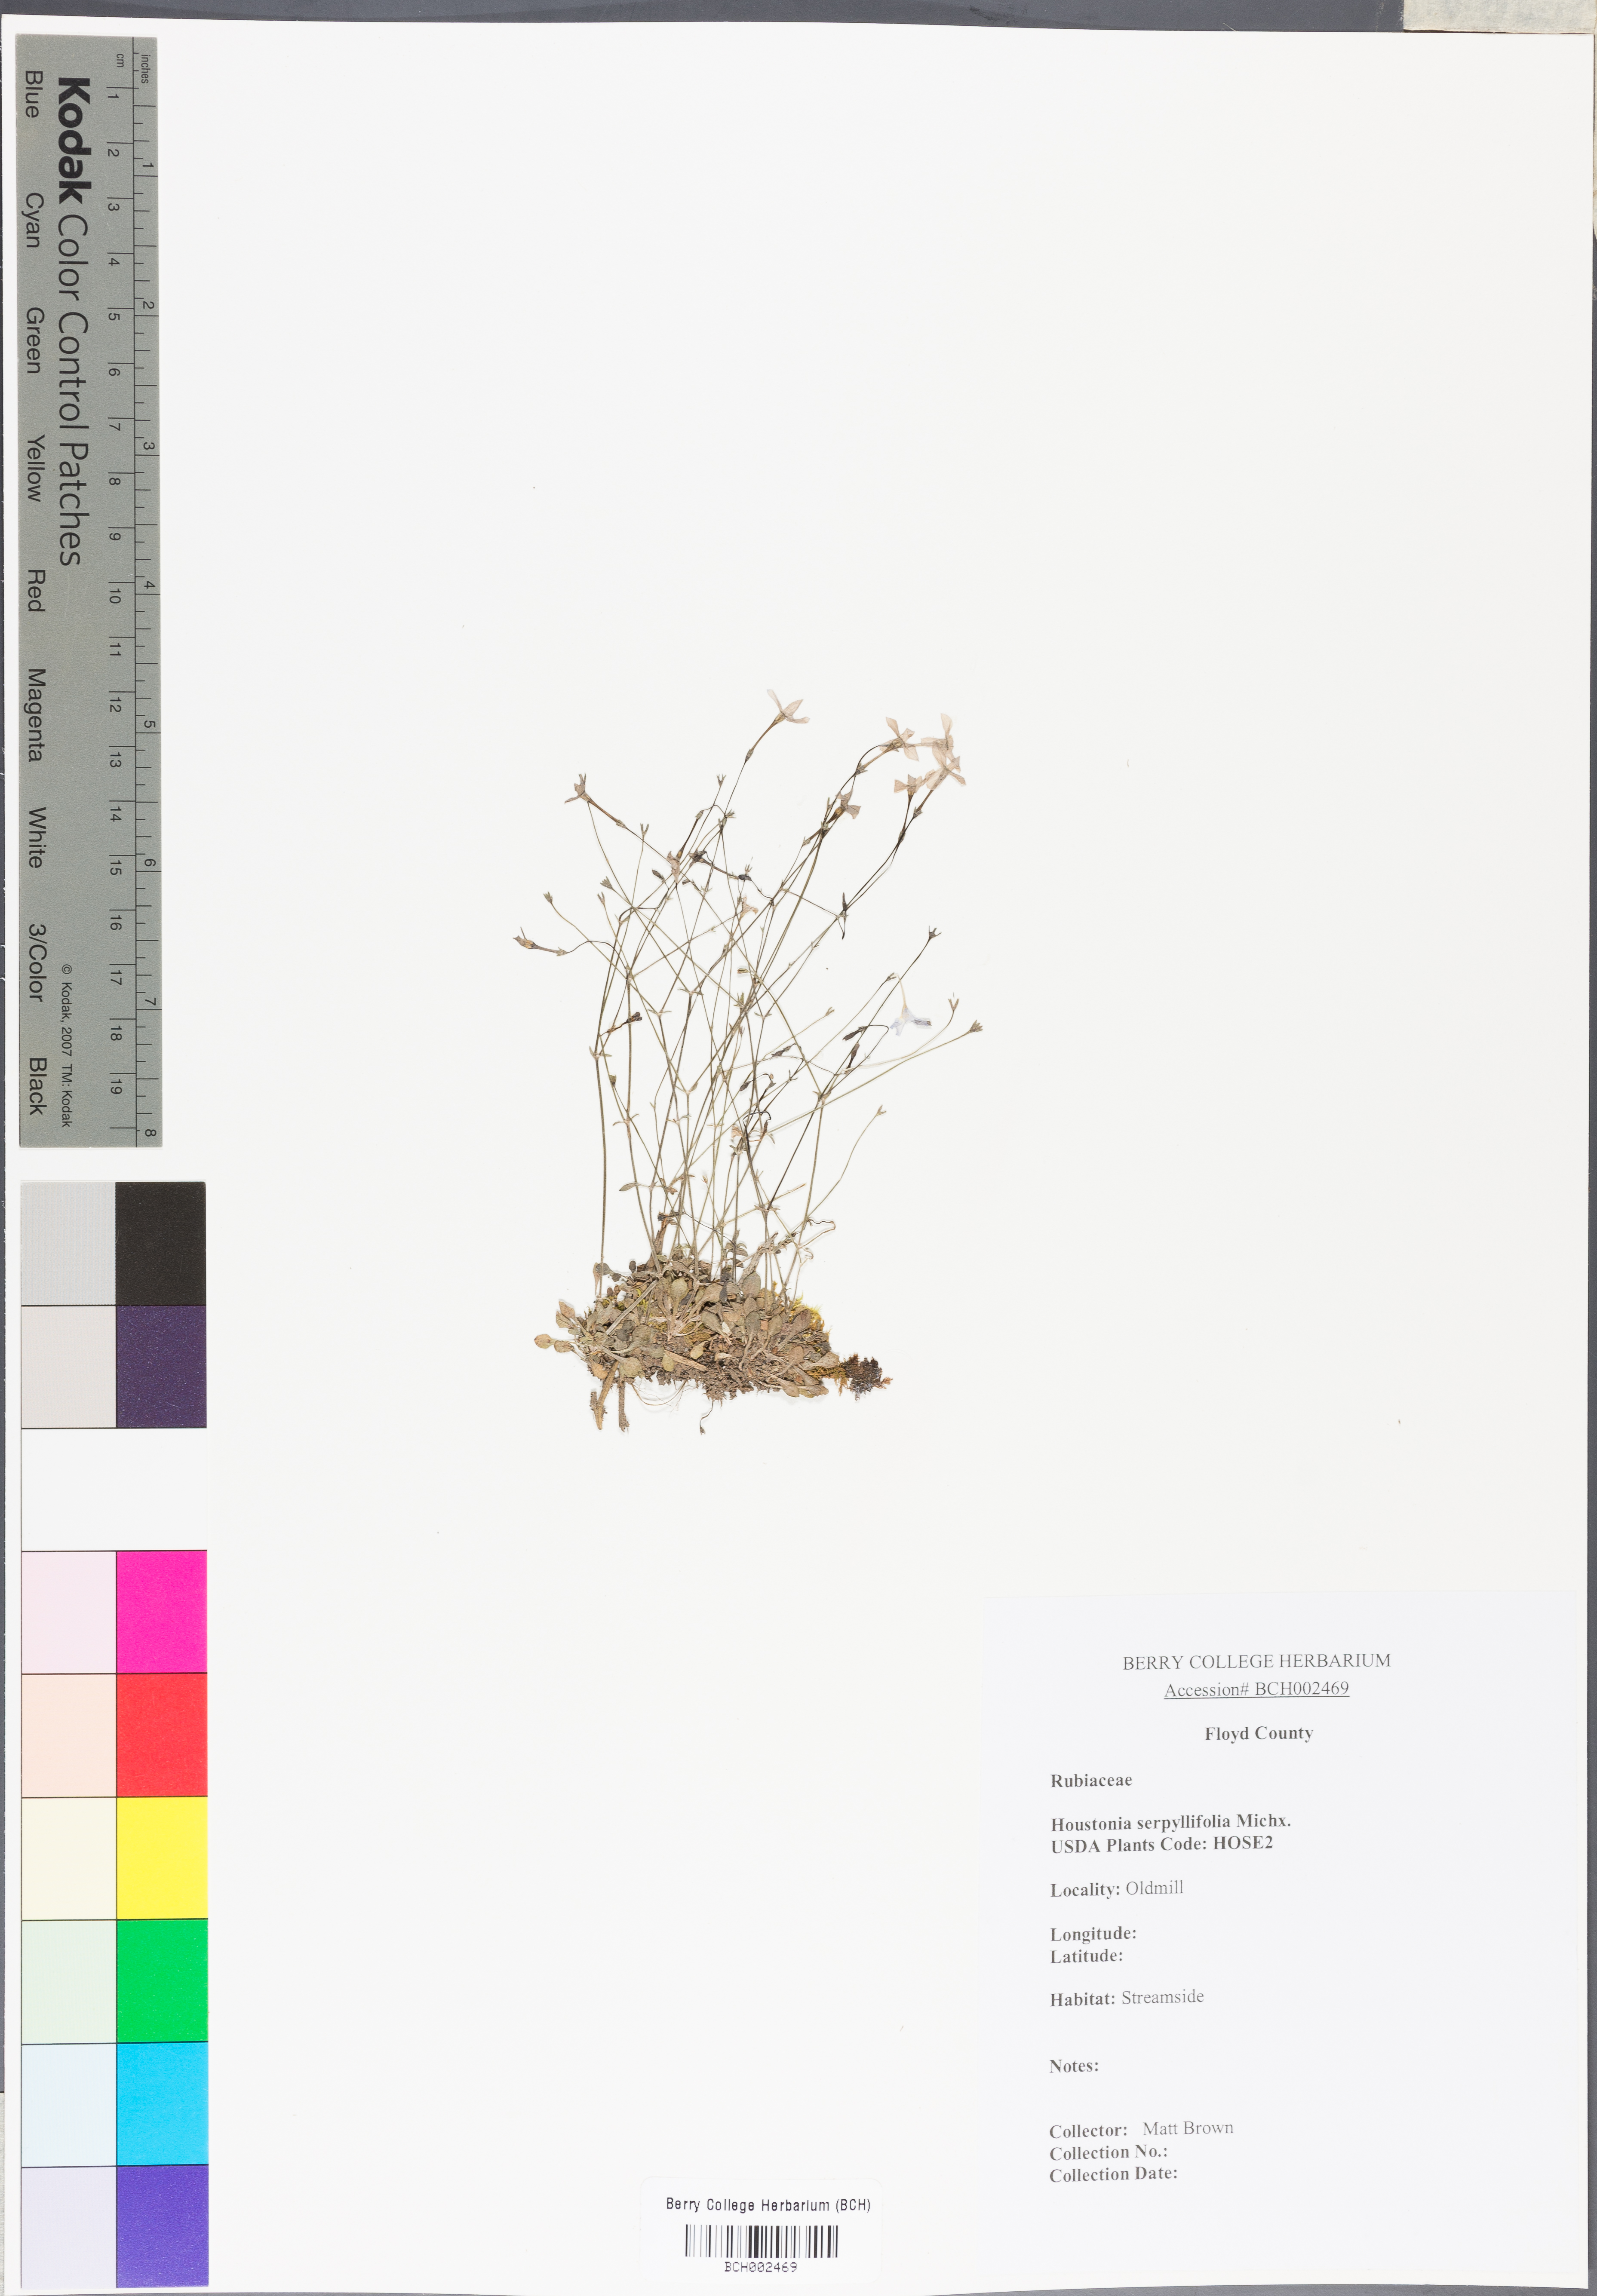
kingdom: Plantae
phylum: Tracheophyta
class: Magnoliopsida
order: Gentianales
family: Rubiaceae
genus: Houstonia
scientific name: Houstonia serpyllifolia
